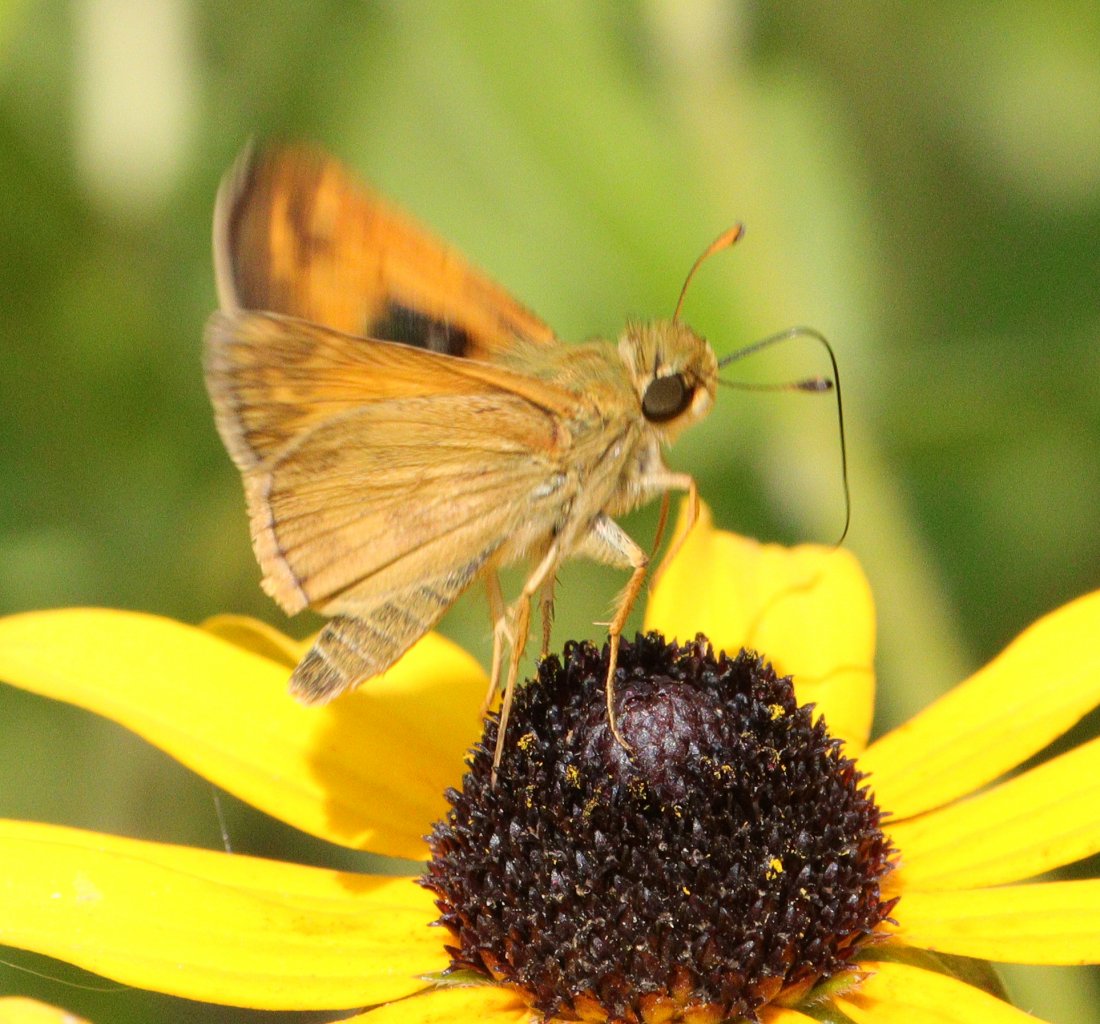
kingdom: Animalia
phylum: Arthropoda
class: Insecta
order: Lepidoptera
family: Hesperiidae
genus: Atalopedes
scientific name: Atalopedes campestris
